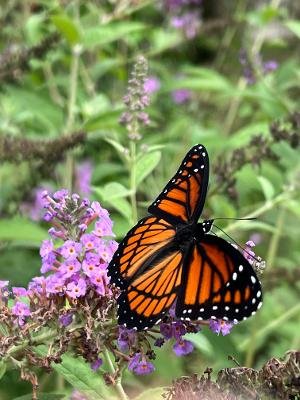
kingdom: Animalia
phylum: Arthropoda
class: Insecta
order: Lepidoptera
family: Nymphalidae
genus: Limenitis
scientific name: Limenitis archippus
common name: Viceroy
